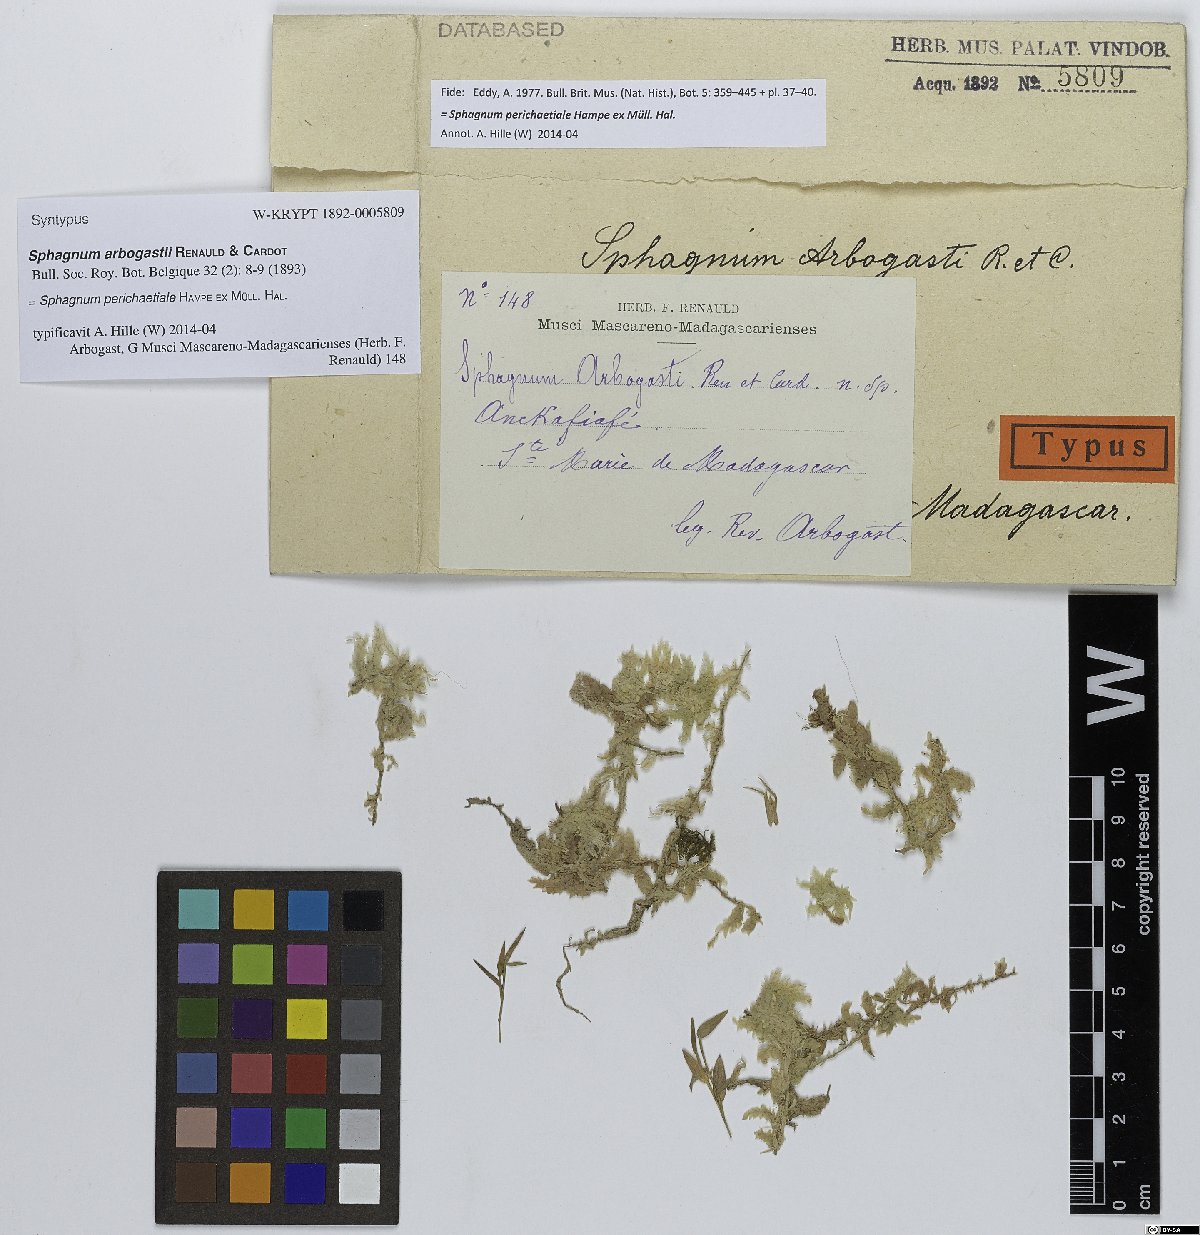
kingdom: Plantae
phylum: Bryophyta
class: Sphagnopsida
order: Sphagnales
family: Sphagnaceae
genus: Sphagnum
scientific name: Sphagnum perichaetiale
